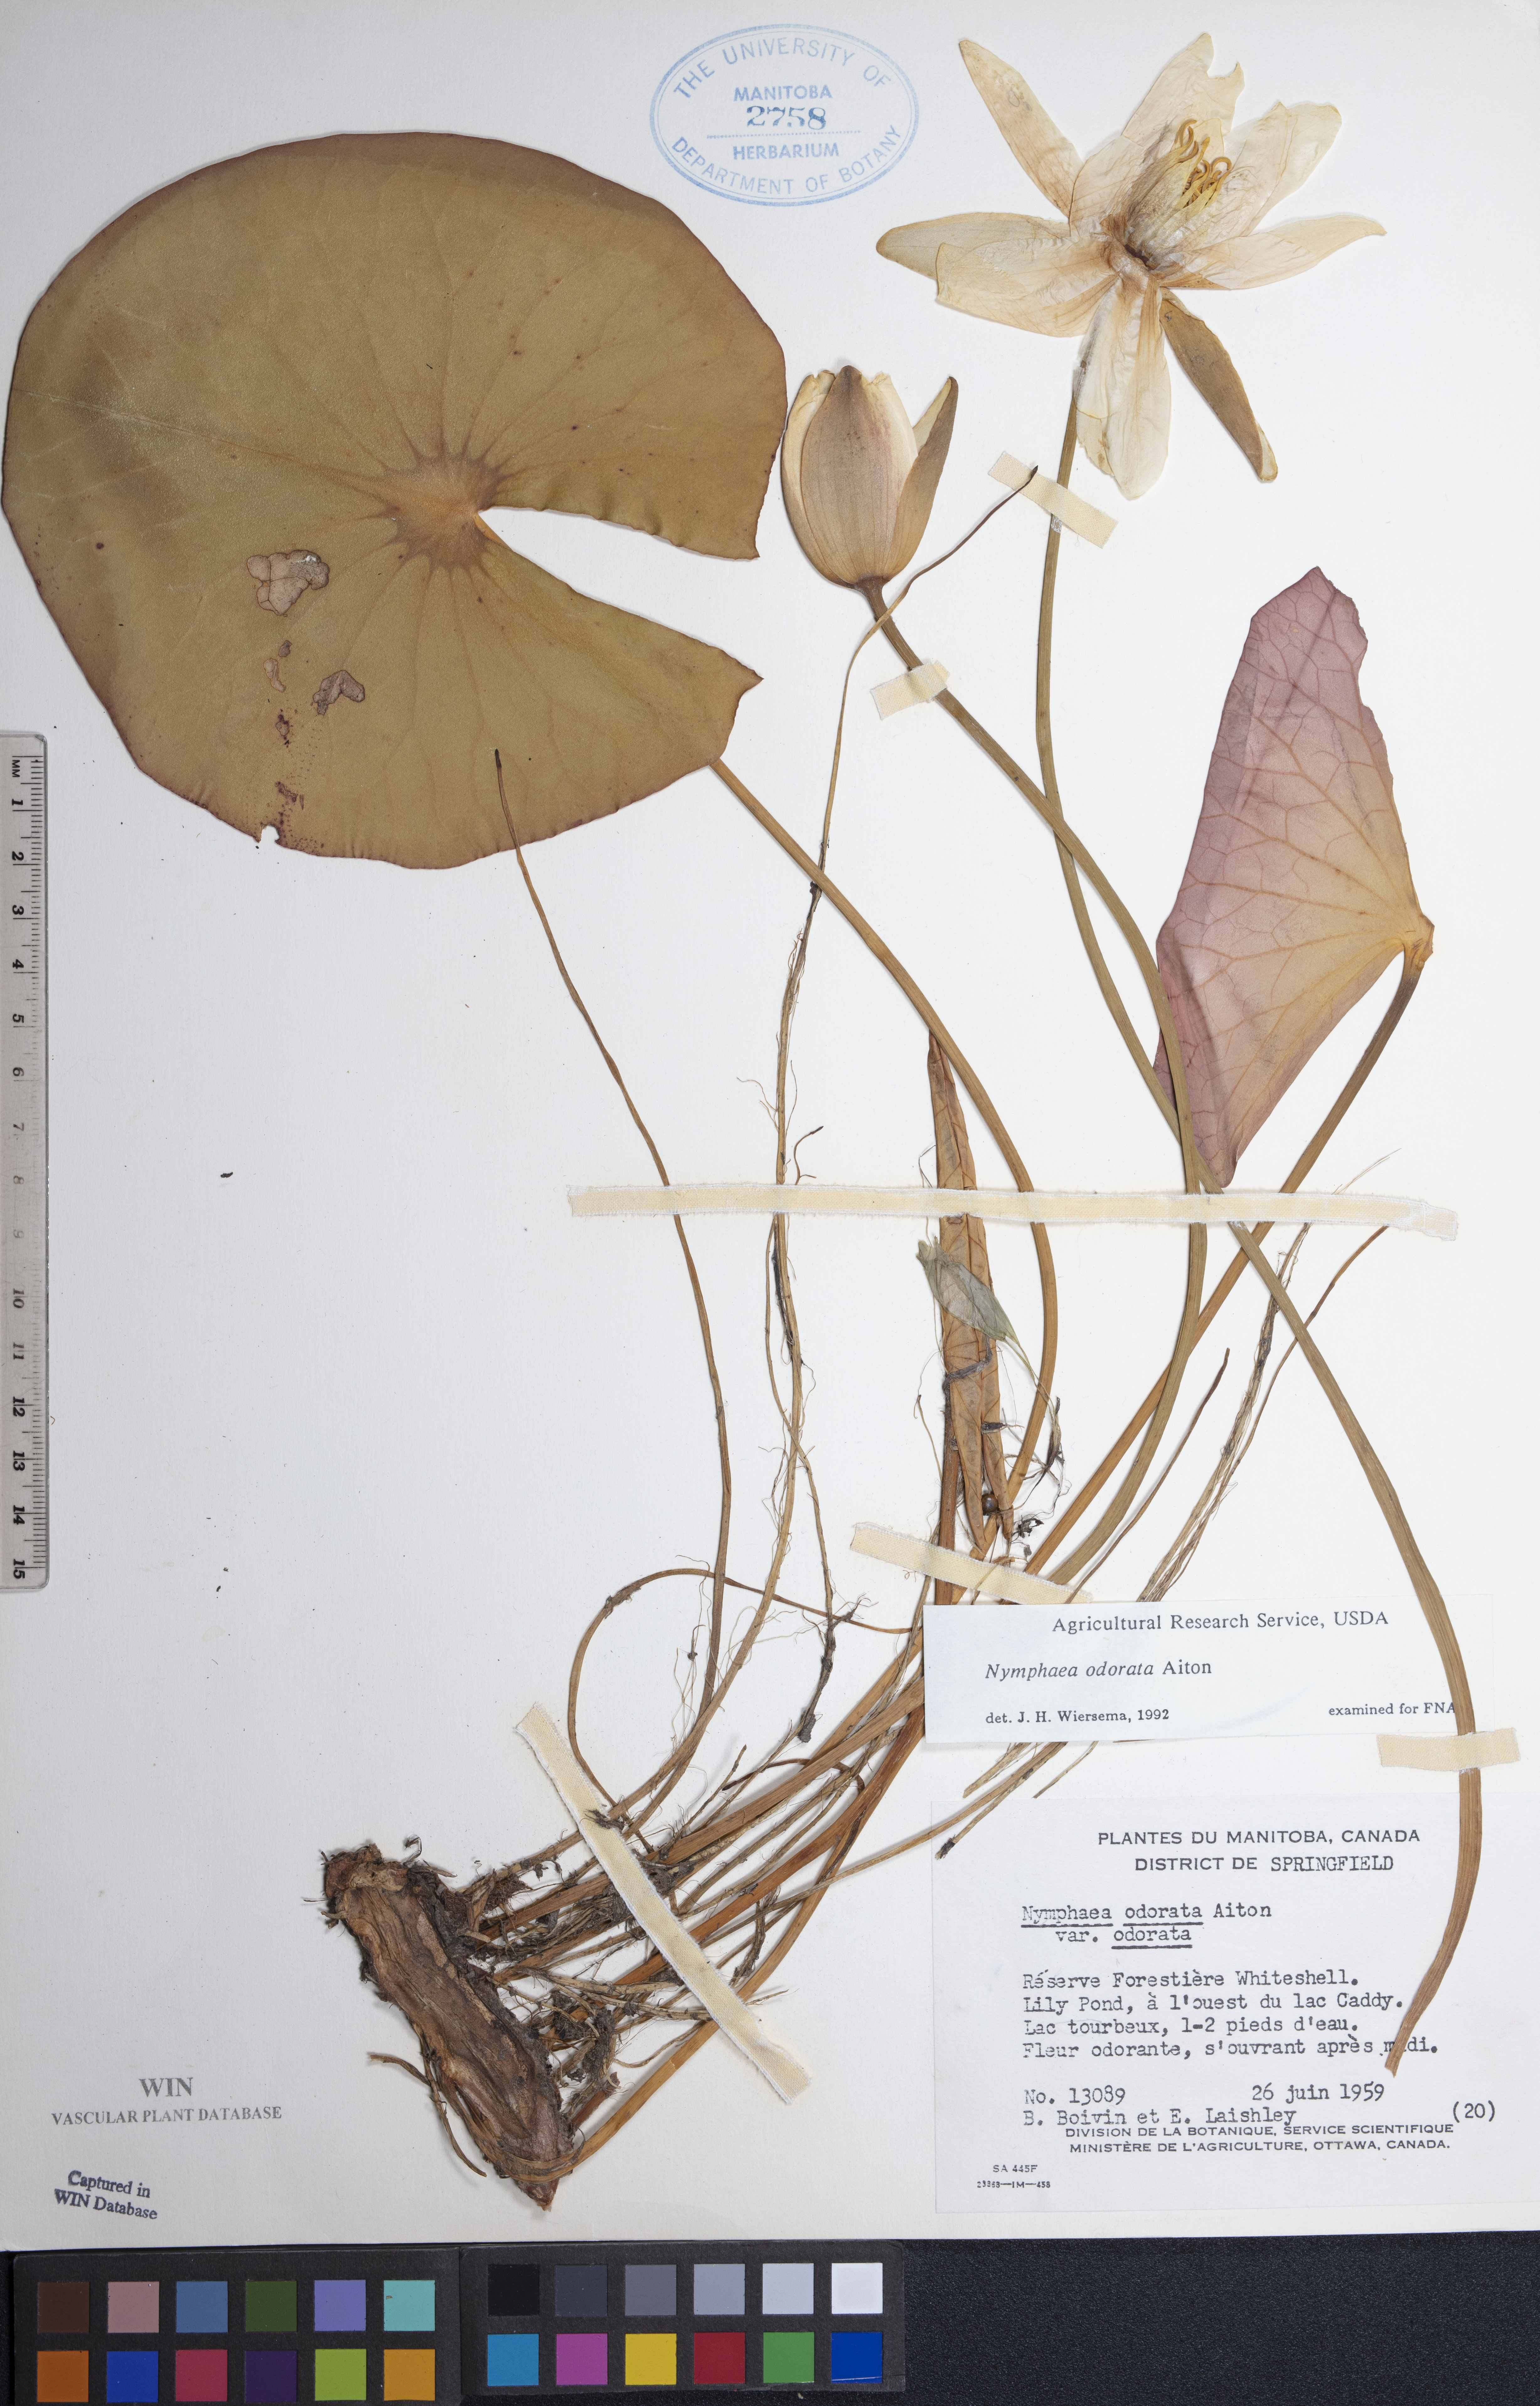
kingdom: Plantae
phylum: Tracheophyta
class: Magnoliopsida
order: Nymphaeales
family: Nymphaeaceae
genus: Nymphaea
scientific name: Nymphaea odorata
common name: Fragrant water-lily
